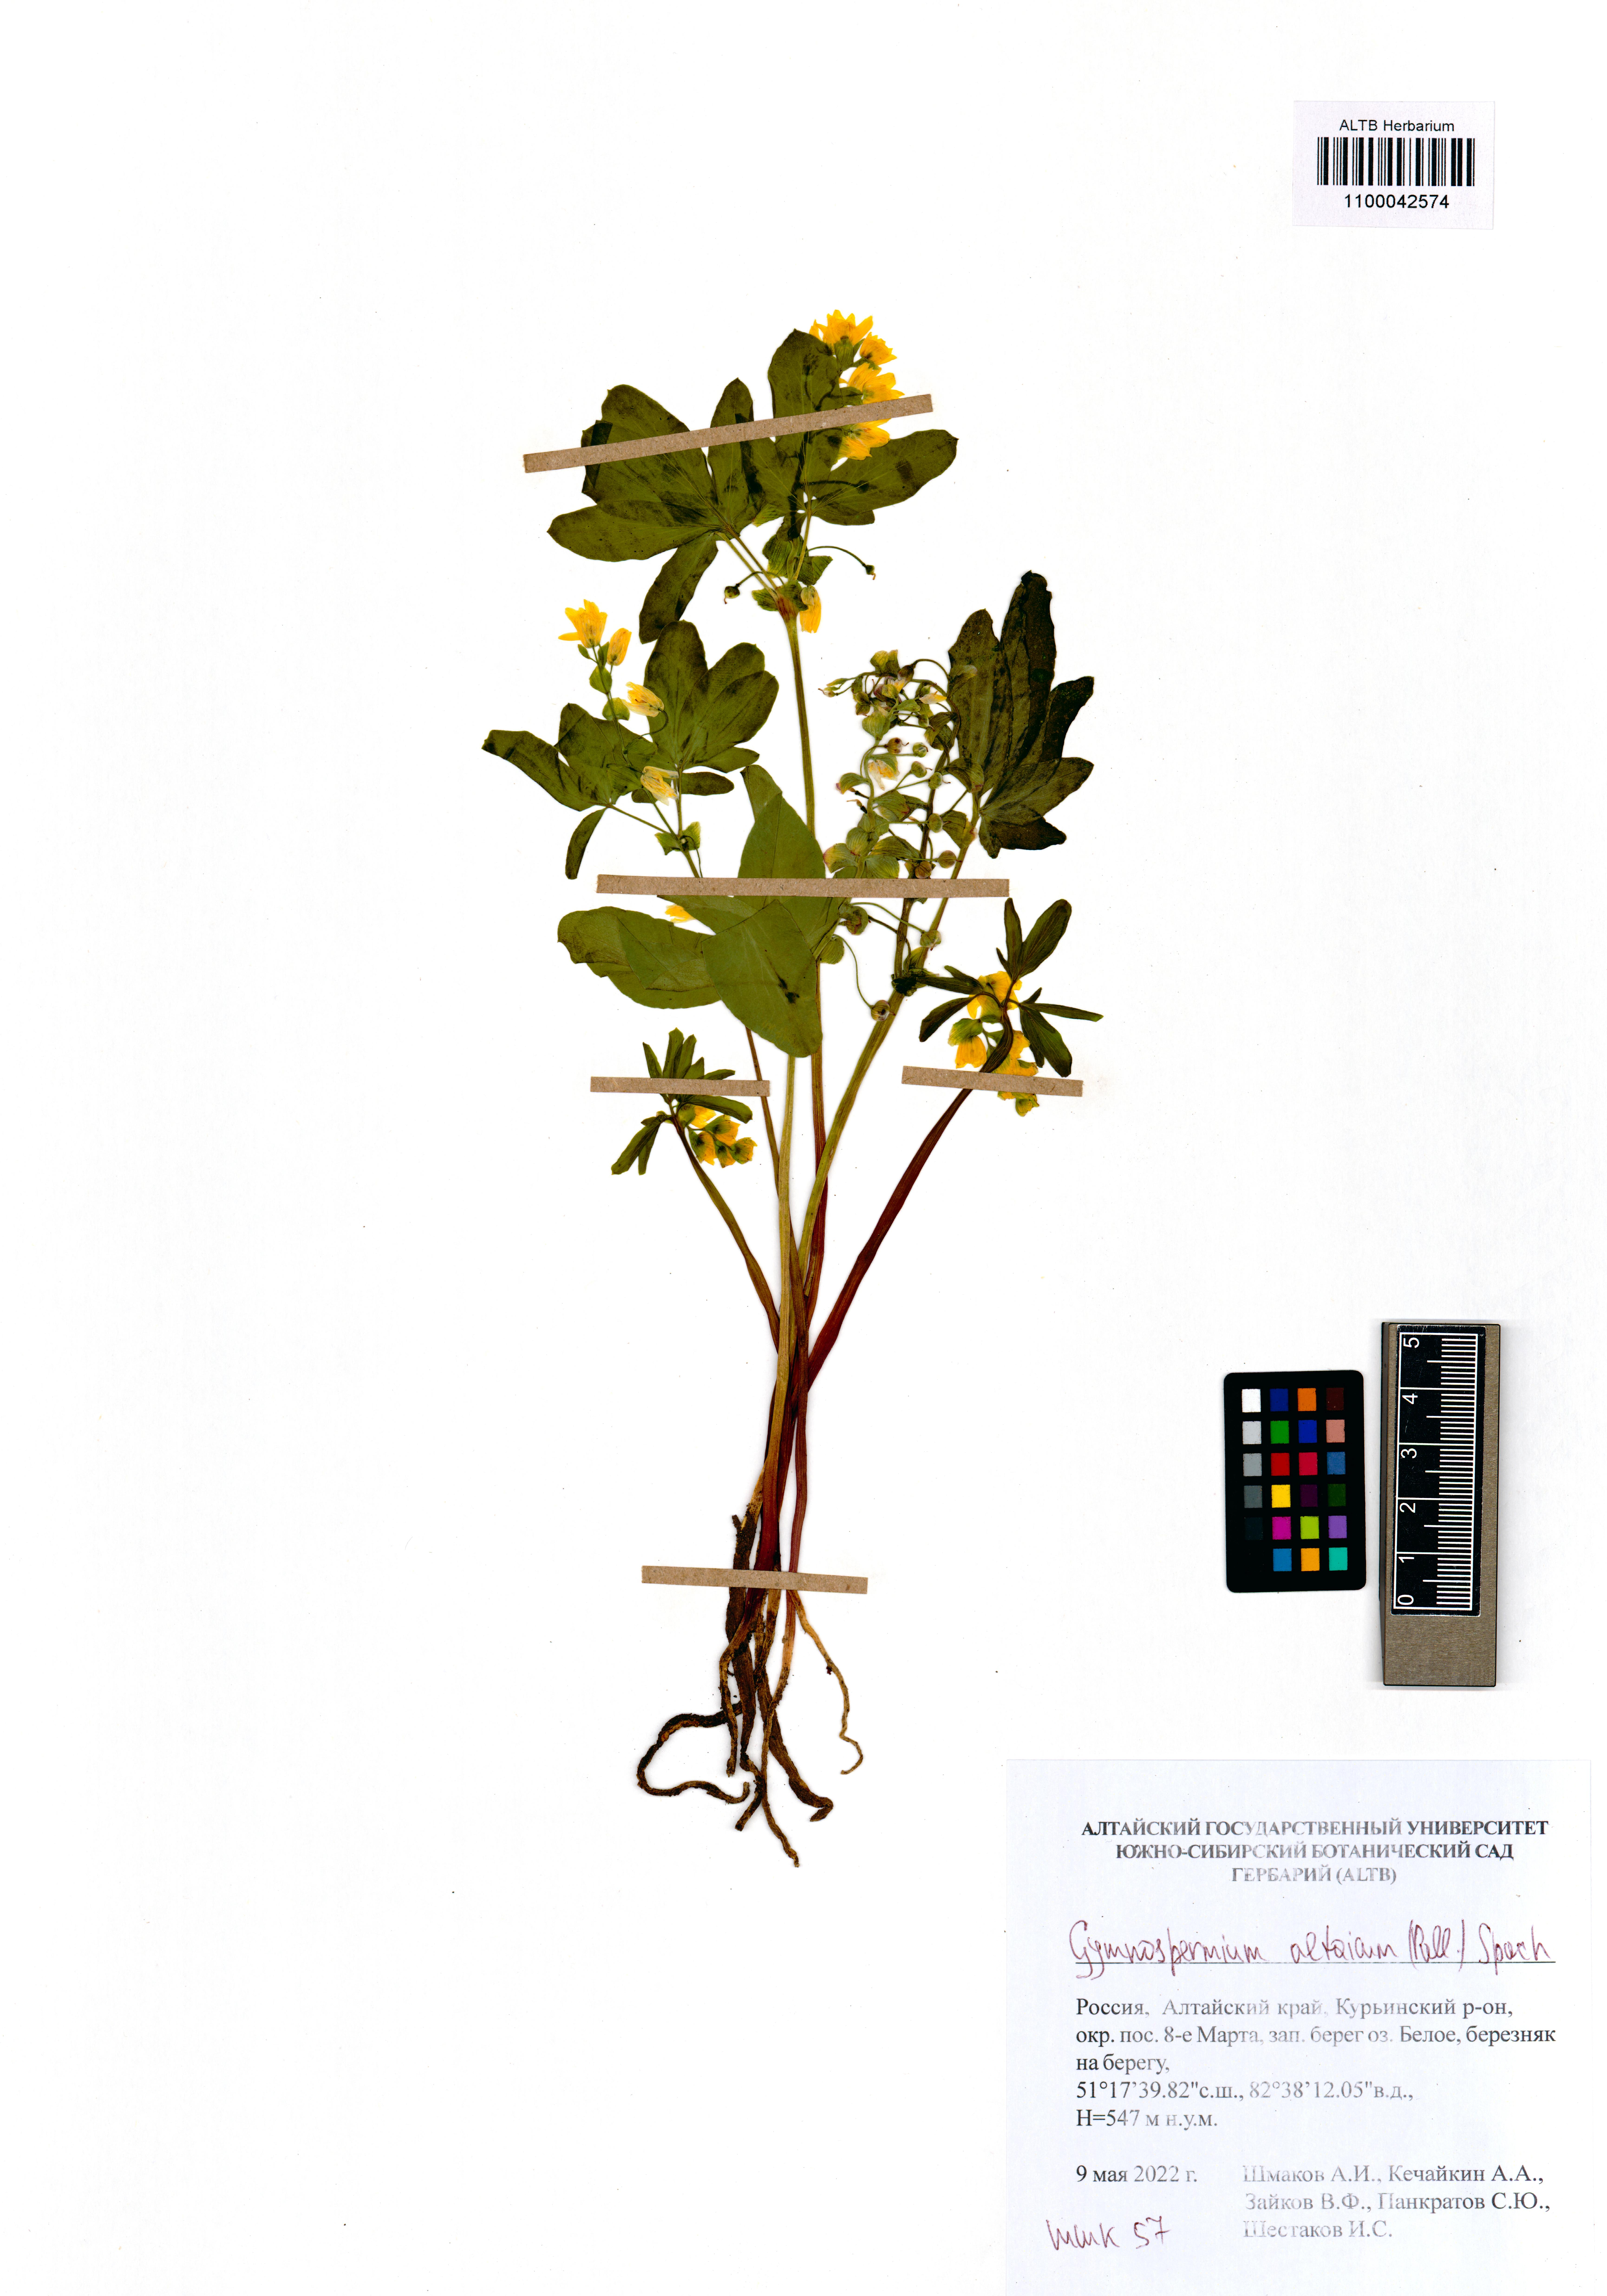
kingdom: Plantae
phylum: Tracheophyta
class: Magnoliopsida
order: Ranunculales
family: Berberidaceae
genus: Gymnospermium
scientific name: Gymnospermium altaicum
